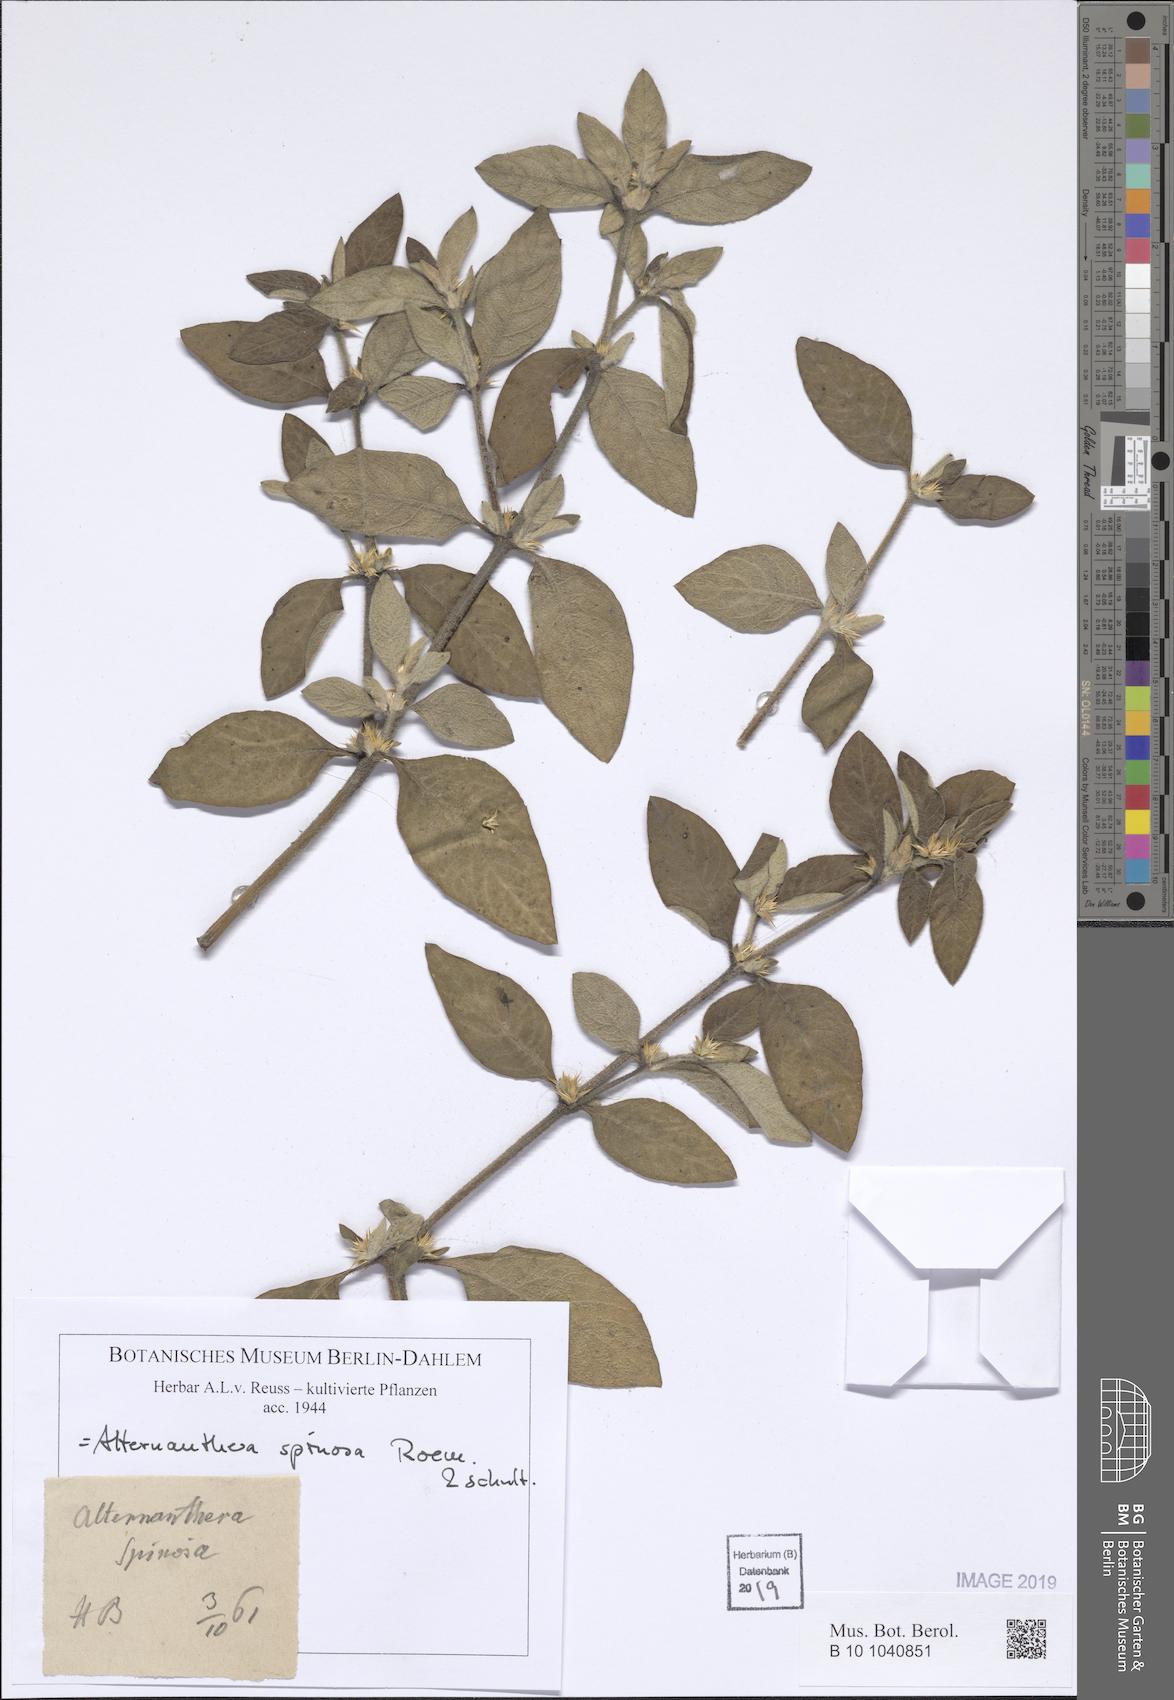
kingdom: Plantae
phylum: Tracheophyta
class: Magnoliopsida
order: Caryophyllales
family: Amaranthaceae
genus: Alternanthera
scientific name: Alternanthera spinosa
